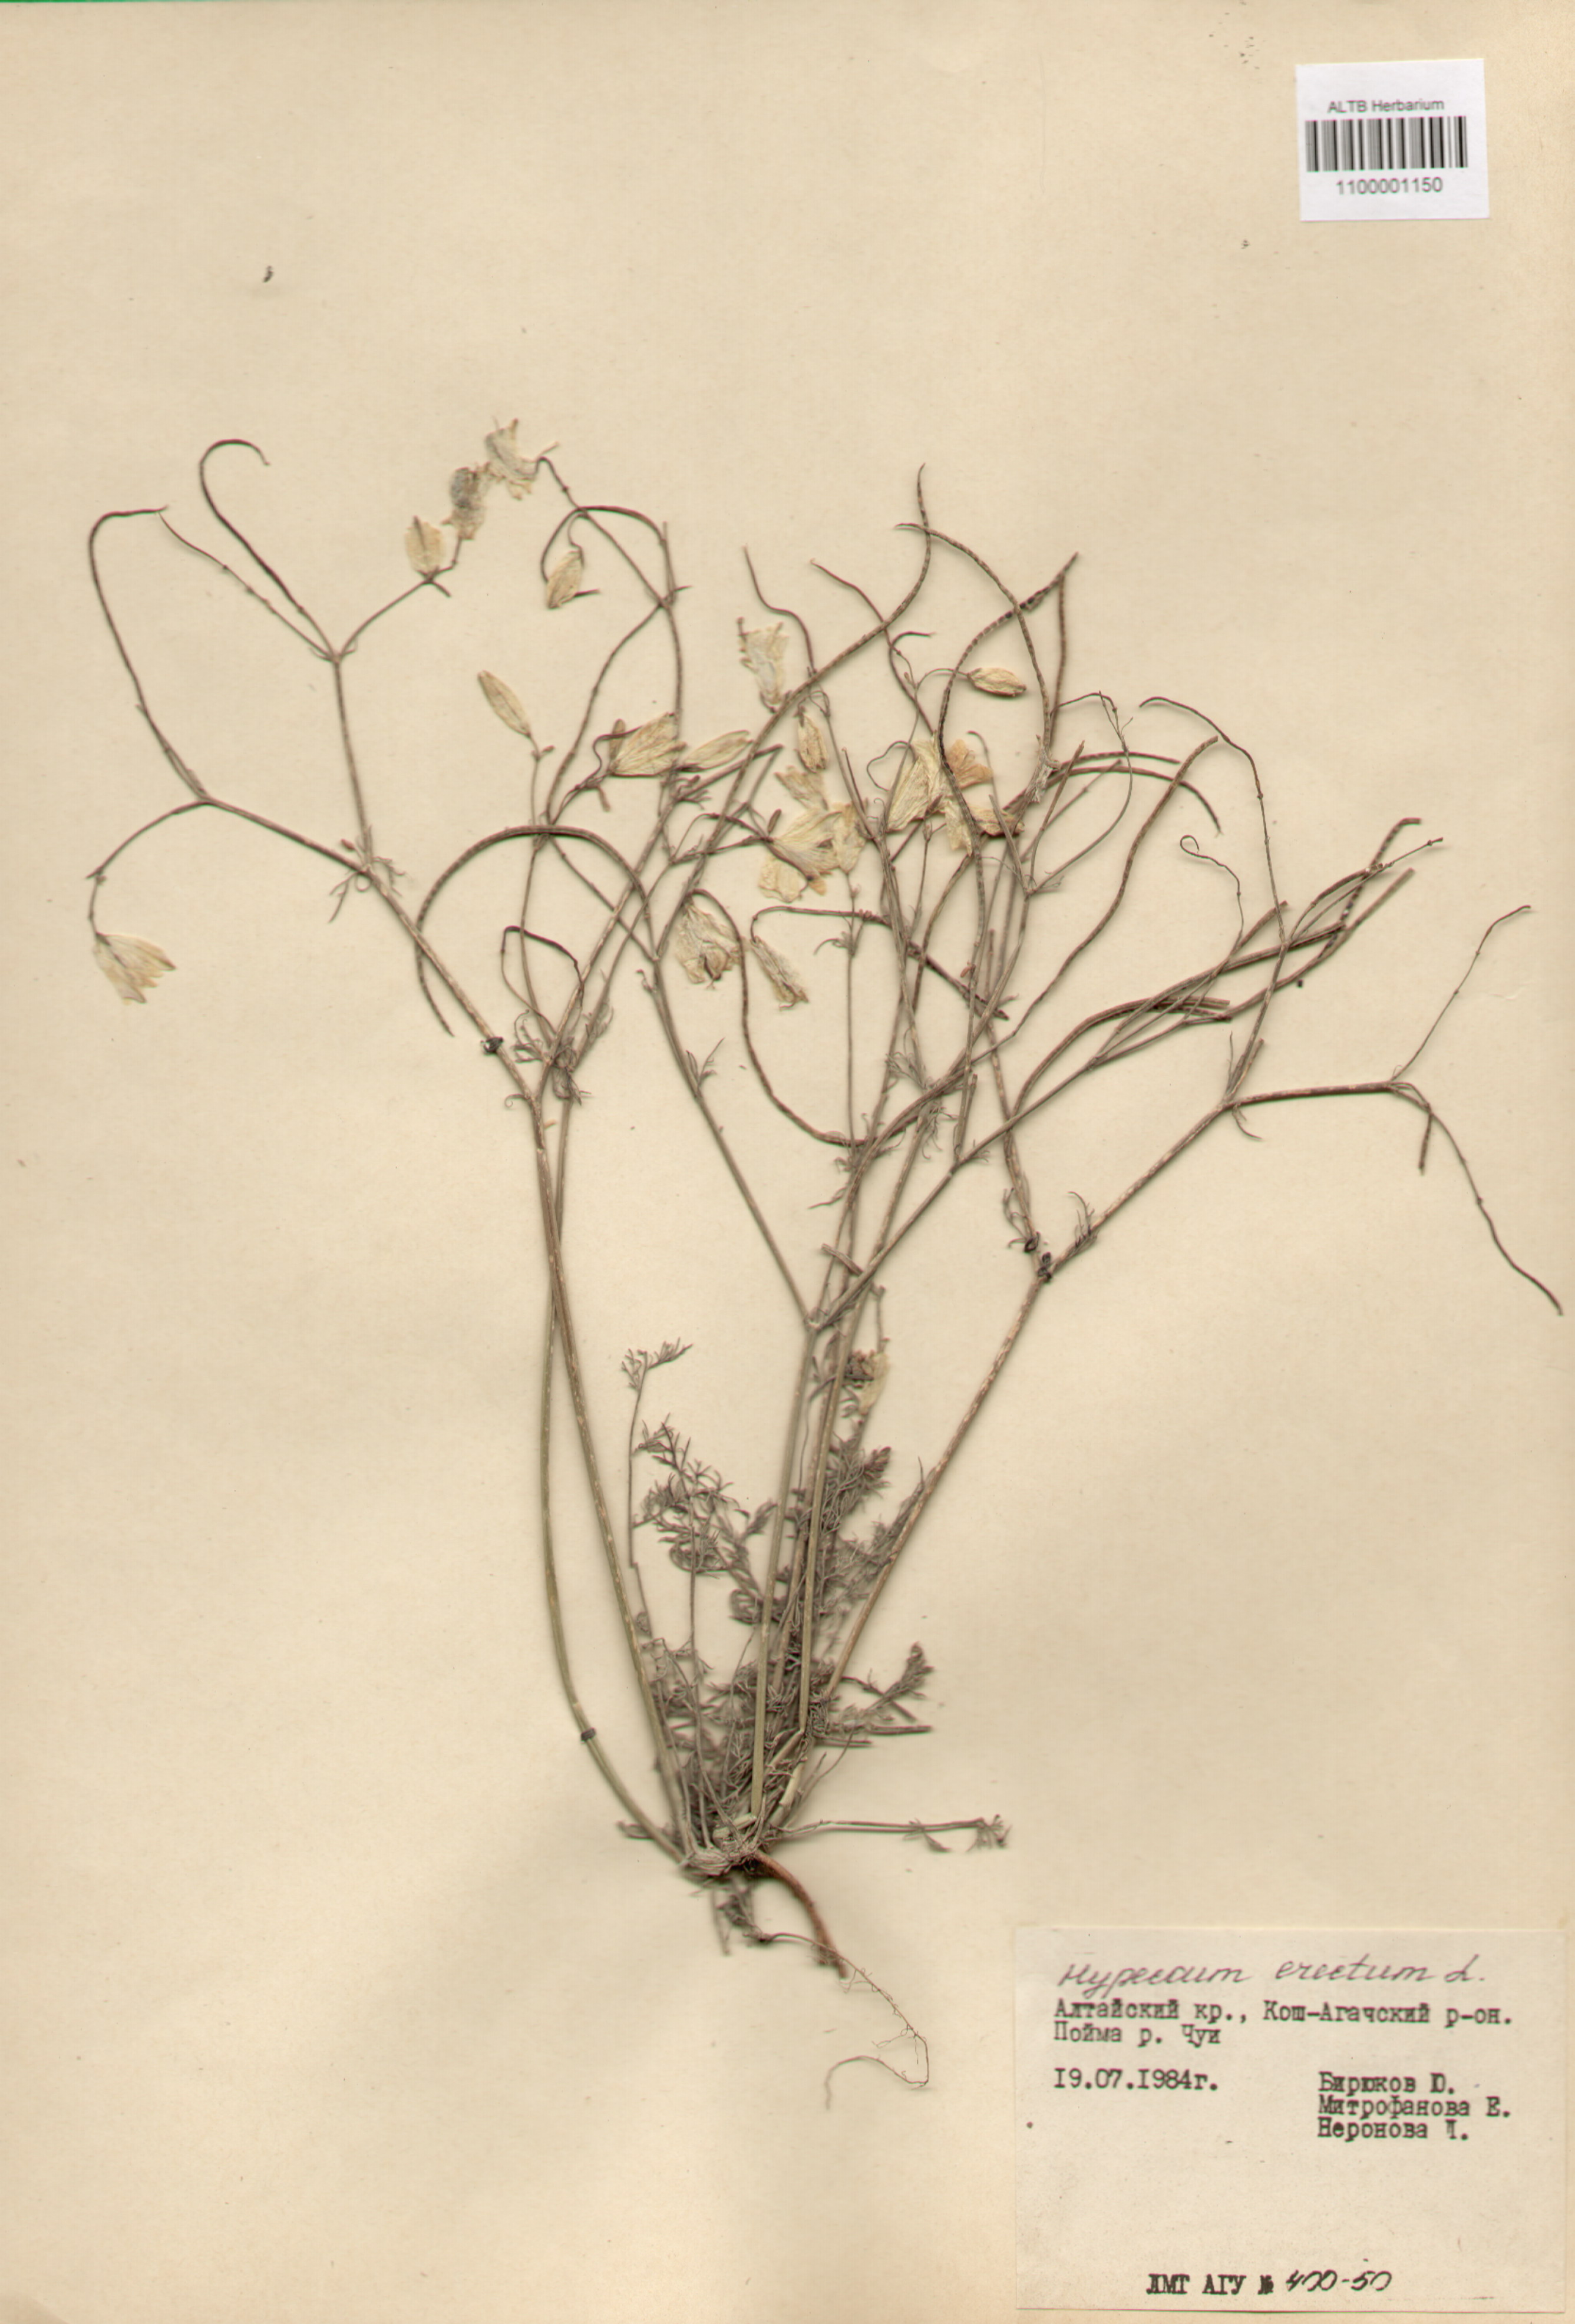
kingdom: Plantae
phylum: Tracheophyta
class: Magnoliopsida
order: Ranunculales
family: Papaveraceae
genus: Hypecoum
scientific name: Hypecoum erectum
